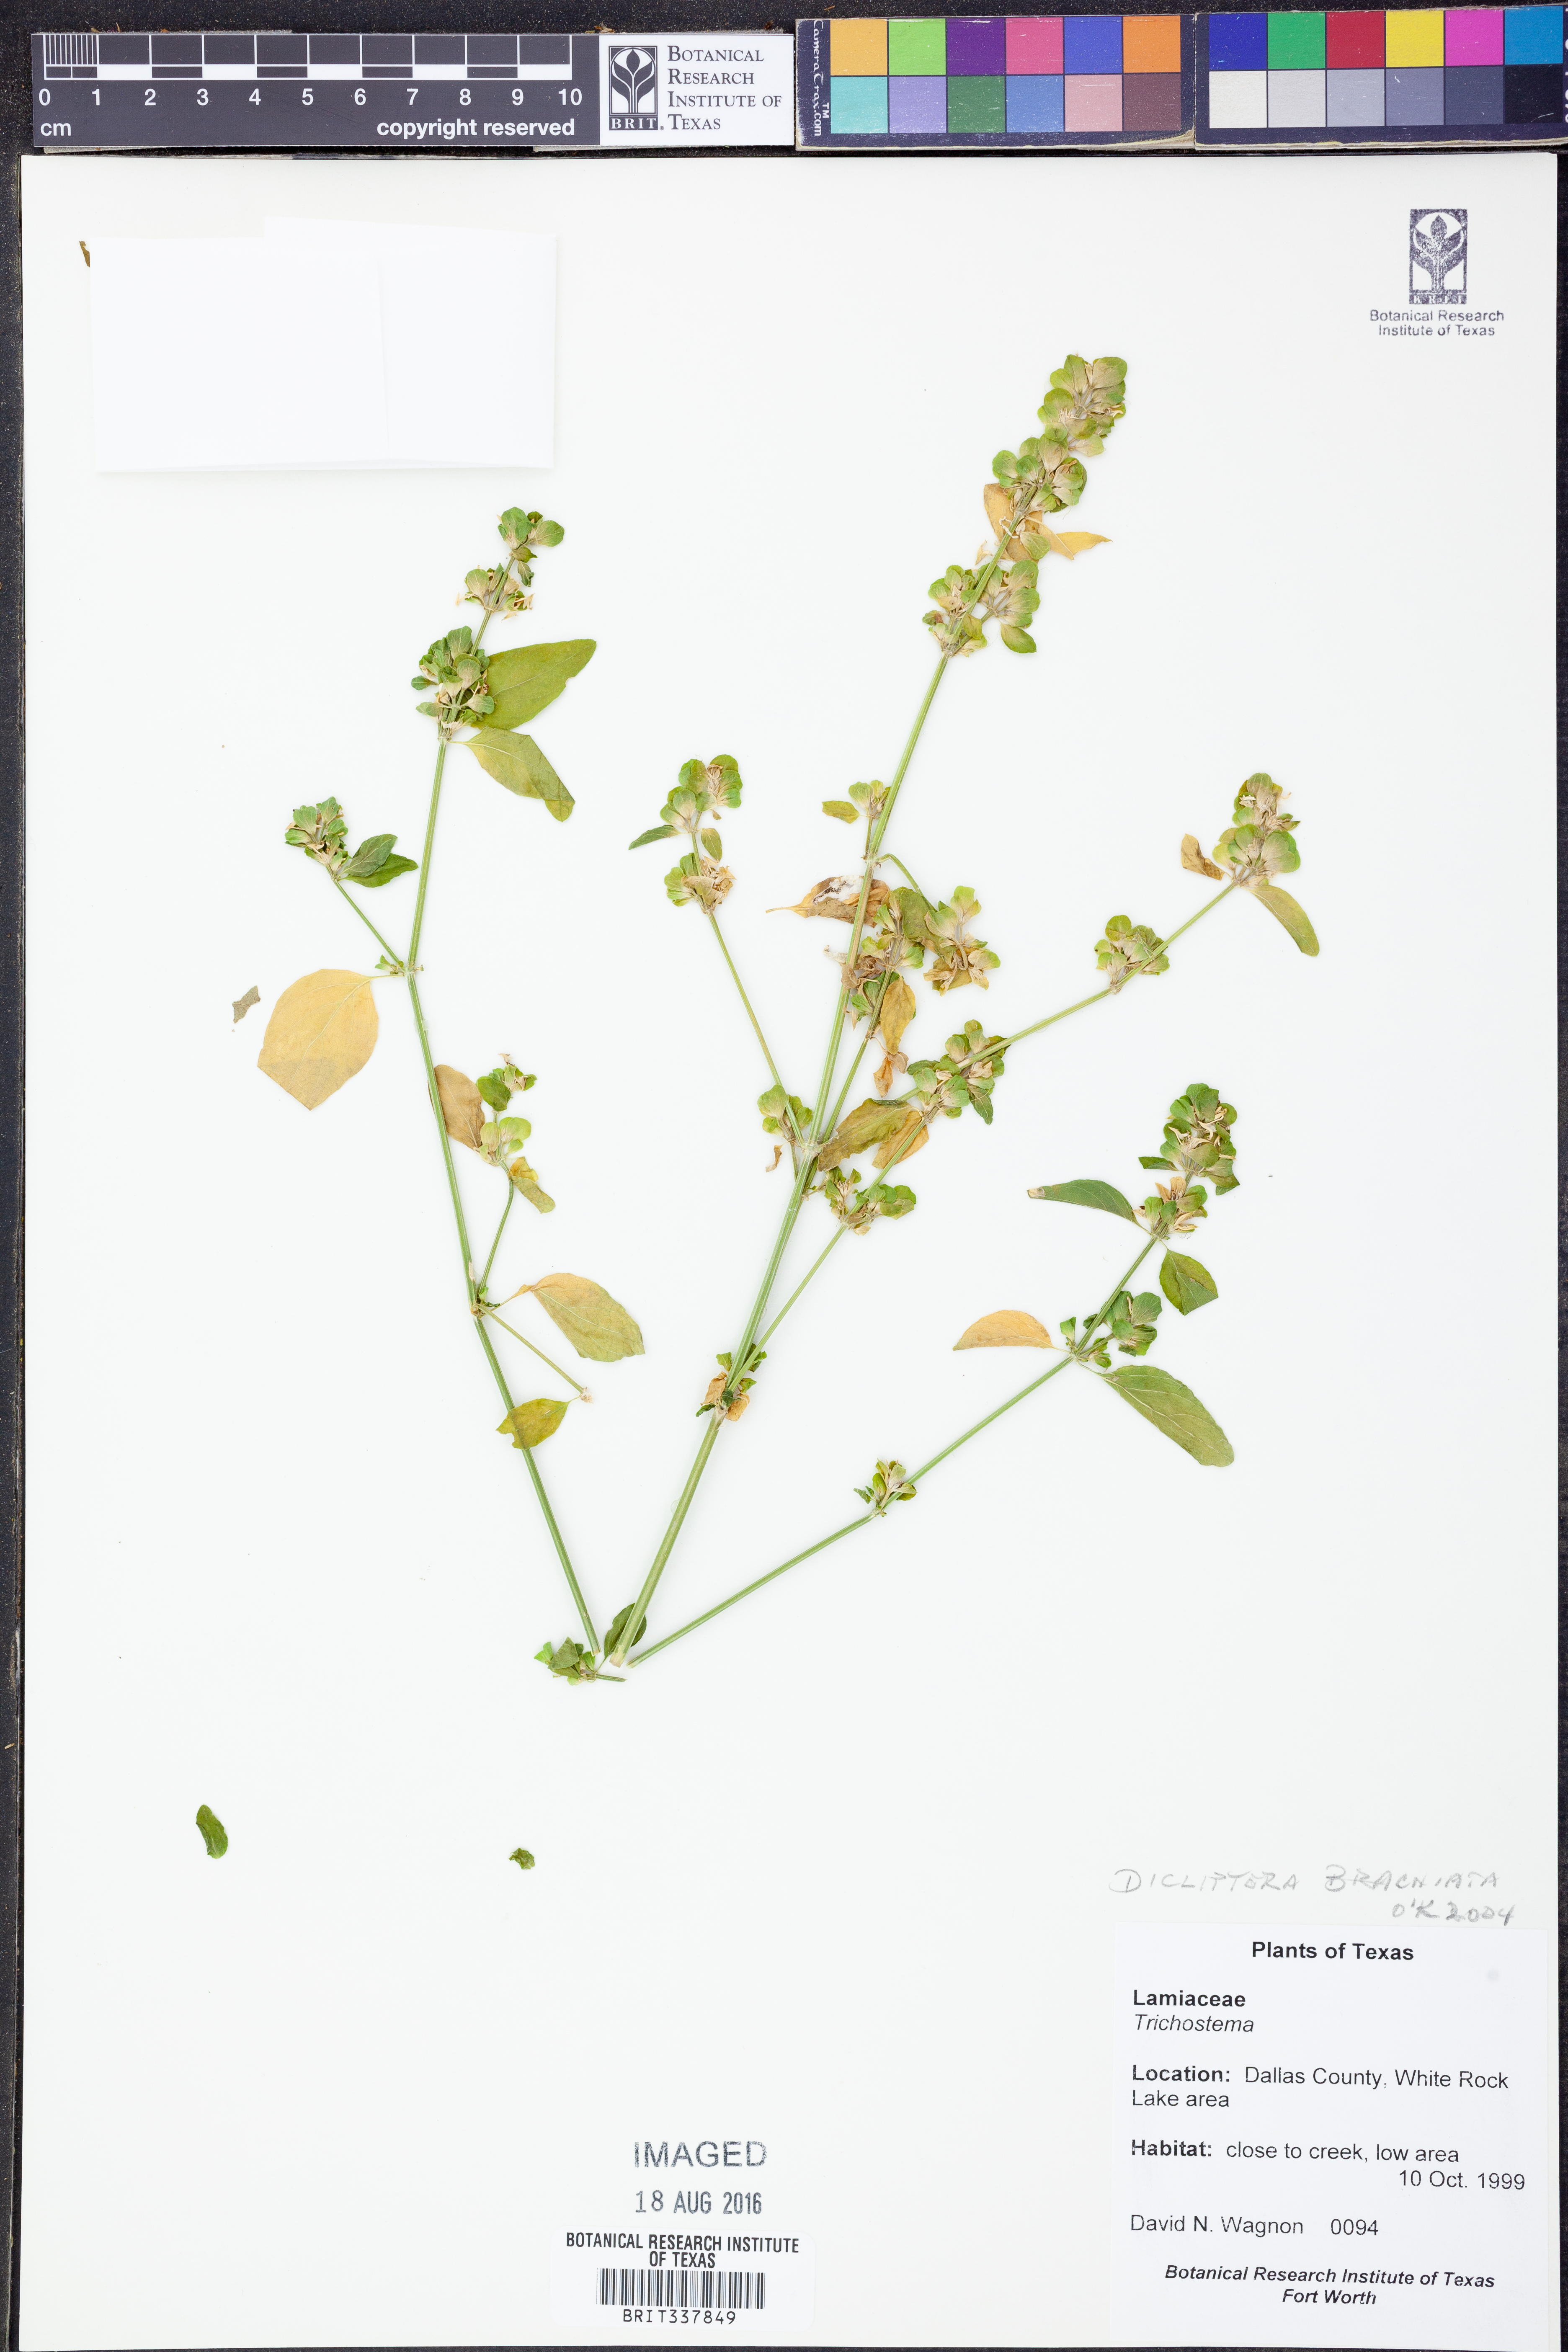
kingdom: Plantae
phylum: Tracheophyta
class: Magnoliopsida
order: Lamiales
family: Acanthaceae
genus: Dicliptera
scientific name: Dicliptera brachiata
